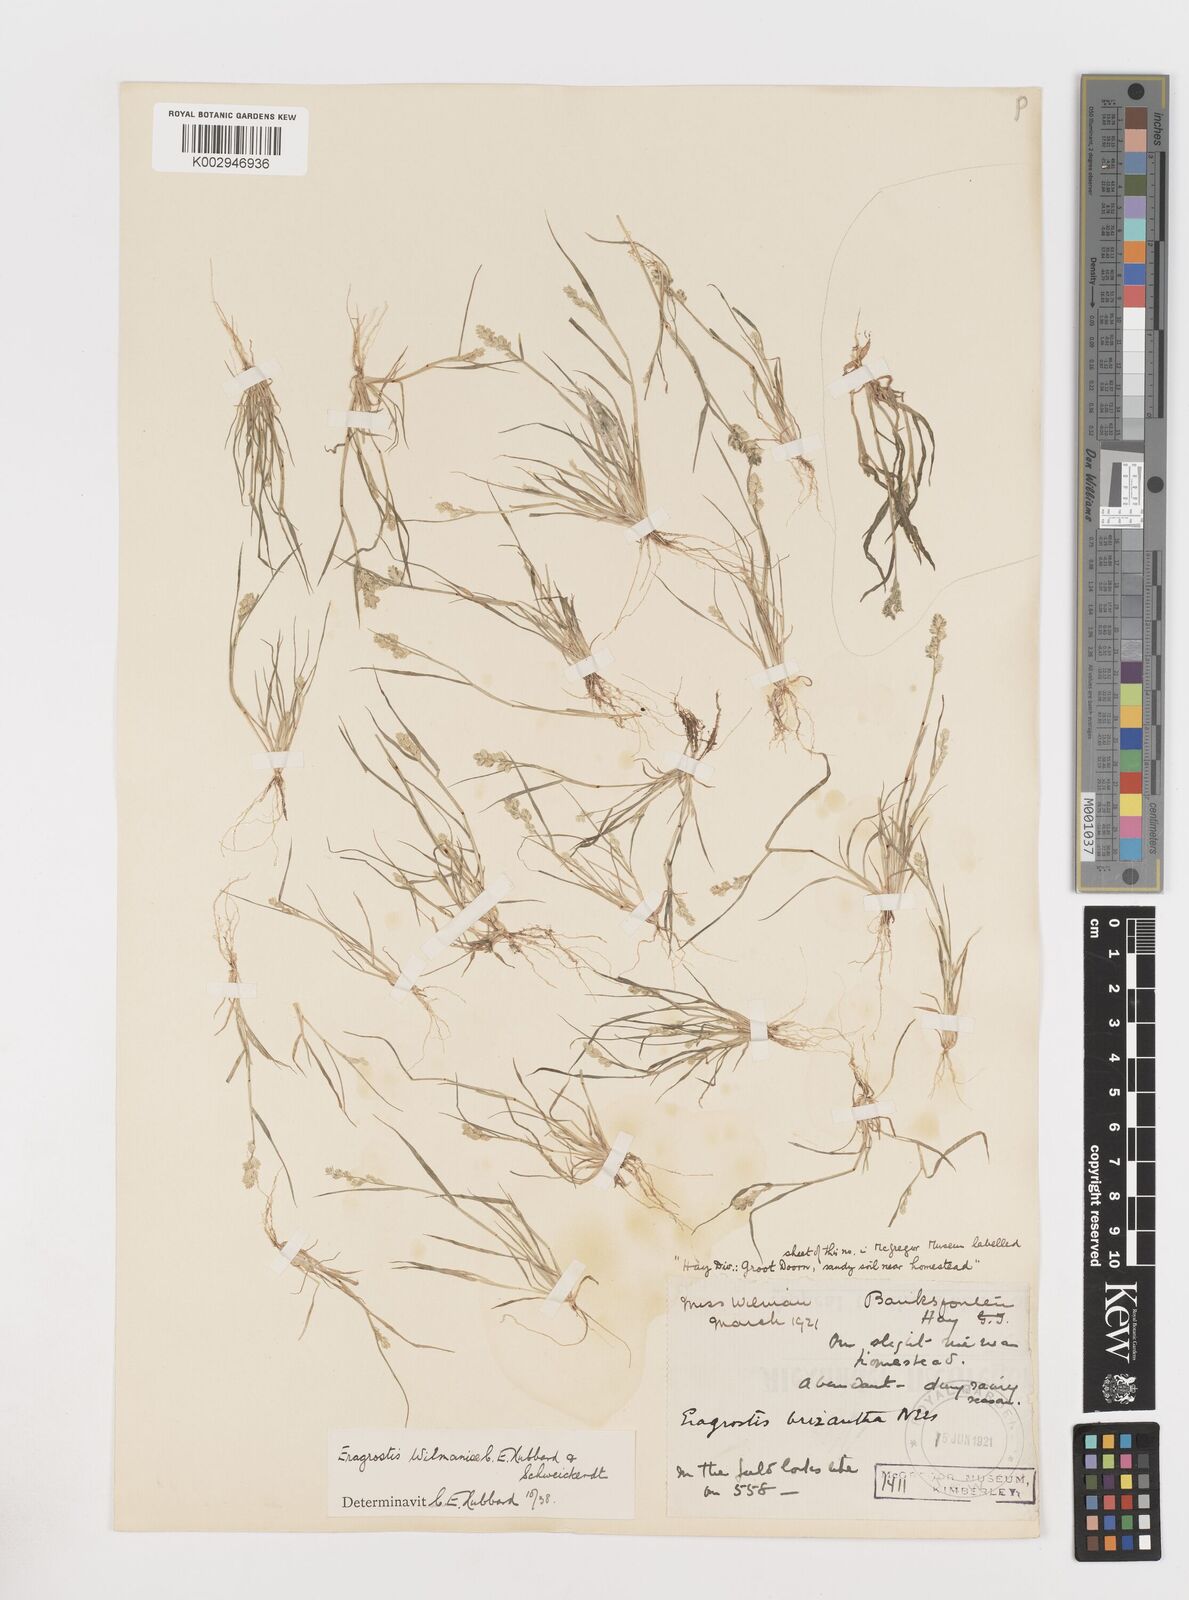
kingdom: Plantae
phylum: Tracheophyta
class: Liliopsida
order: Poales
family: Poaceae
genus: Eragrostis
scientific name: Eragrostis macrochlamys
